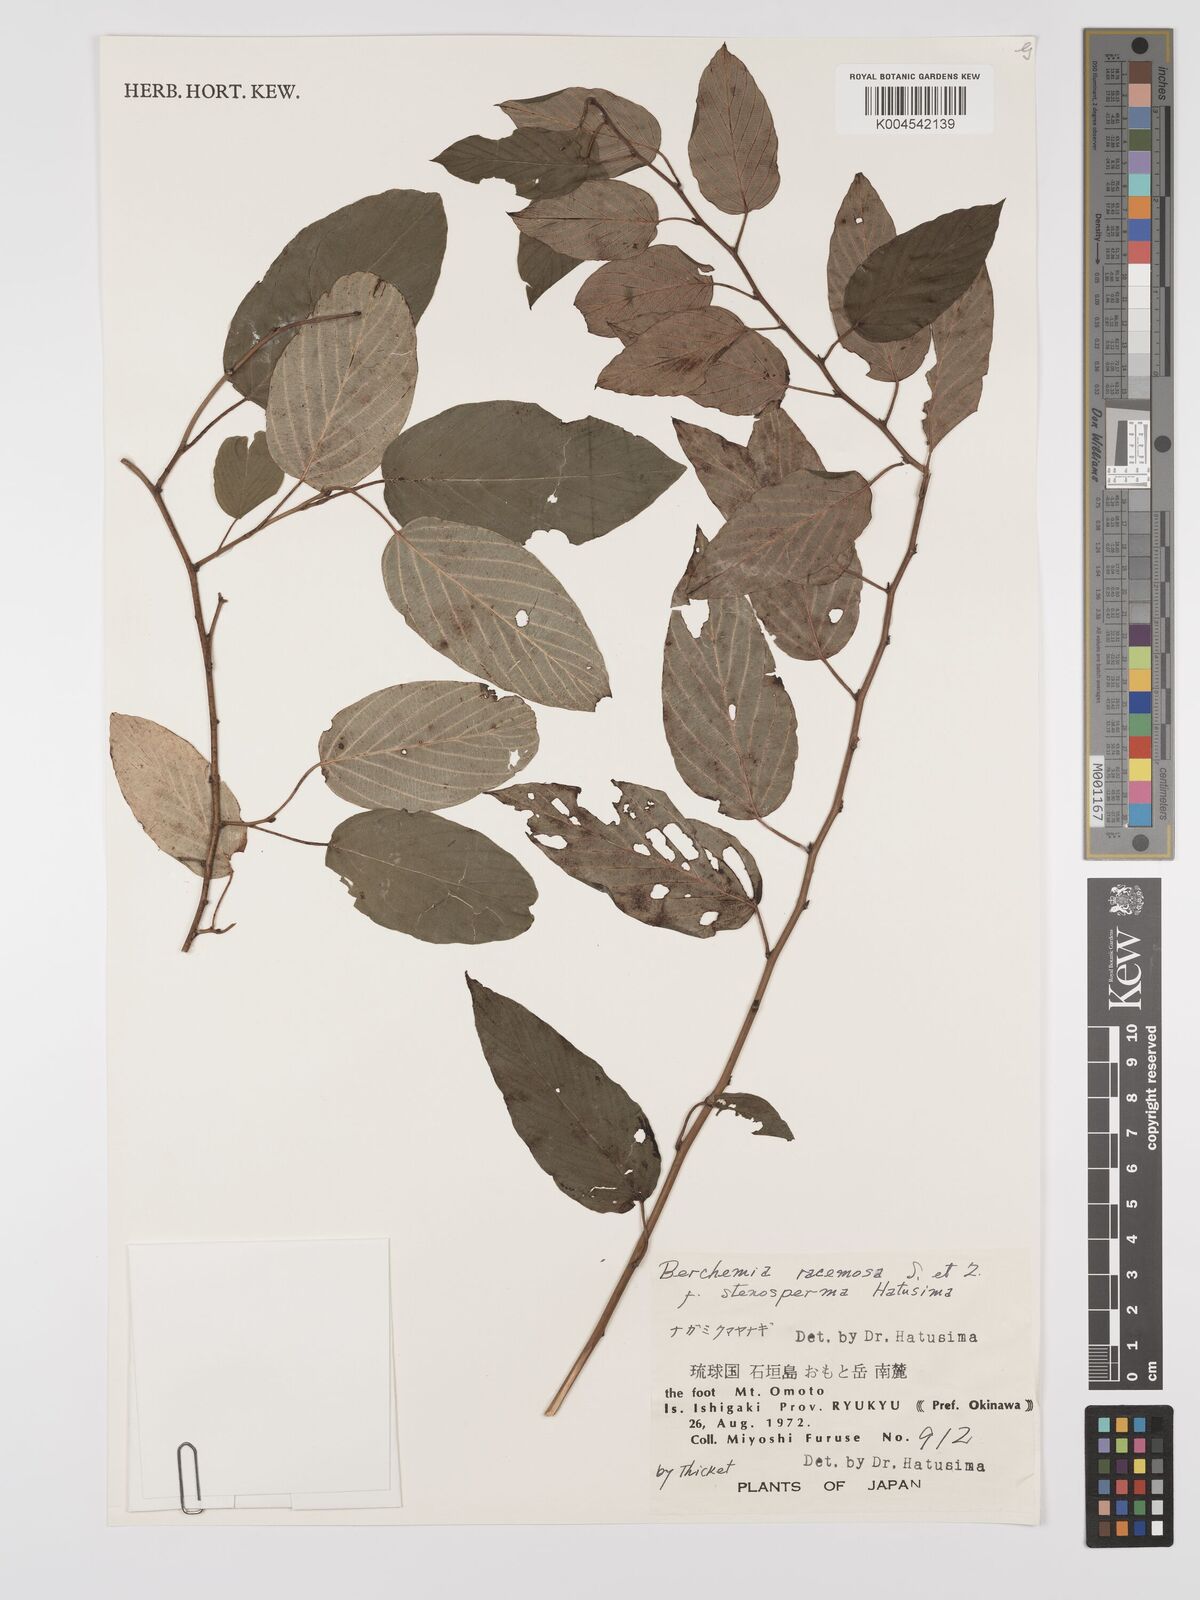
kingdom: Plantae
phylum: Tracheophyta
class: Magnoliopsida
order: Rosales
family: Rhamnaceae
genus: Berchemia
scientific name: Berchemia floribunda
